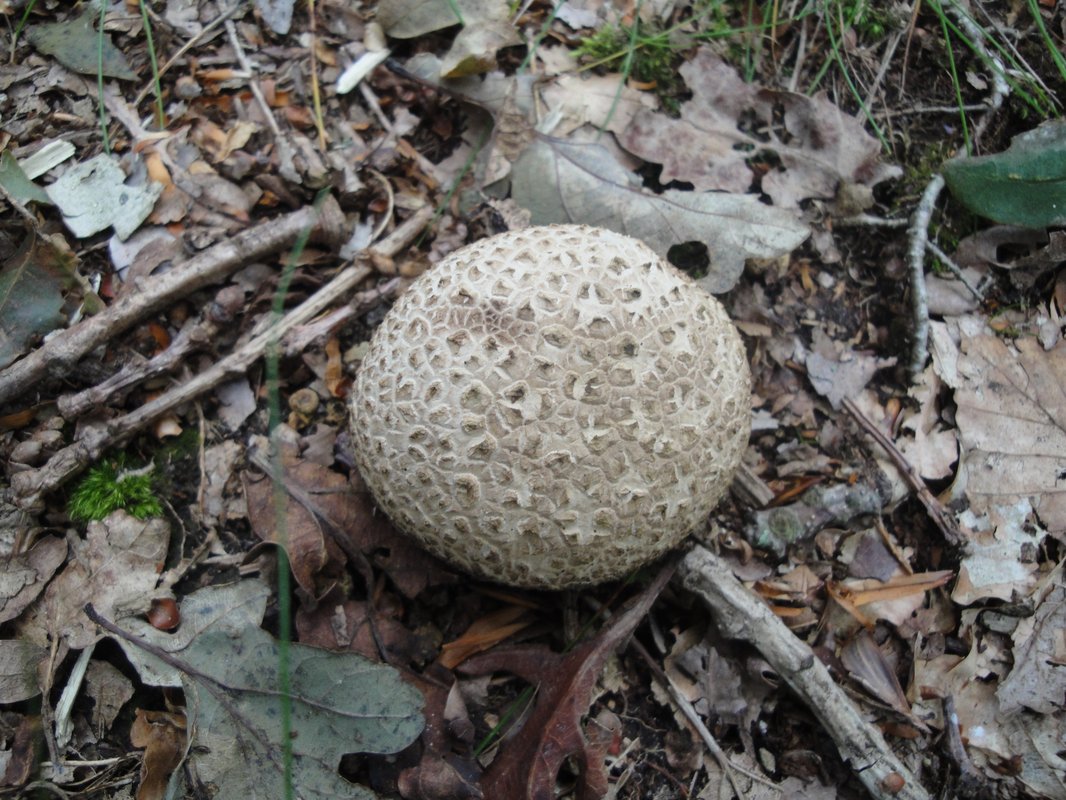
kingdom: Fungi
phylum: Basidiomycota
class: Agaricomycetes
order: Boletales
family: Sclerodermataceae
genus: Scleroderma
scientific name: Scleroderma citrinum
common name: almindelig bruskbold
